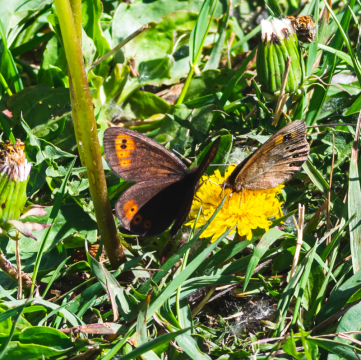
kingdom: Animalia
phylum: Arthropoda
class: Insecta
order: Lepidoptera
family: Nymphalidae
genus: Erebia
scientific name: Erebia epipsodea
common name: Common Alpine
